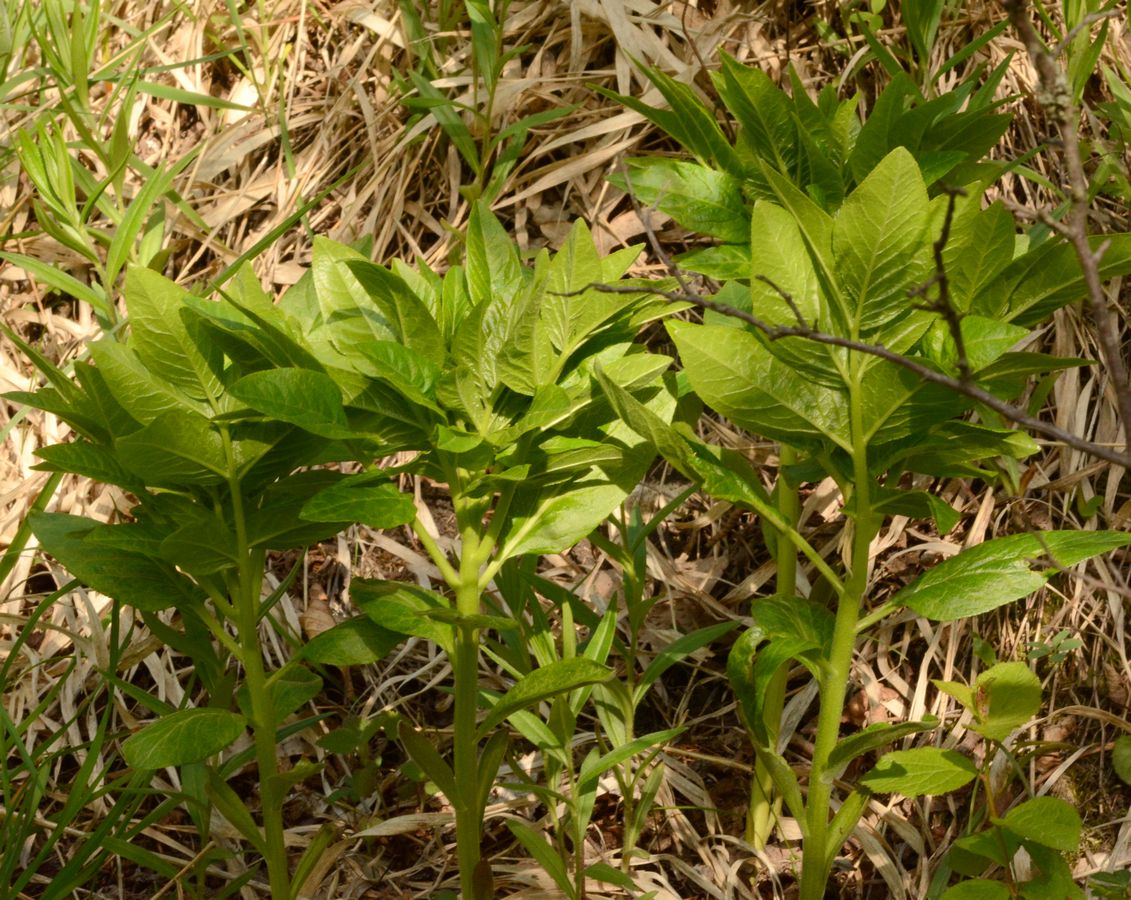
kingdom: Plantae
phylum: Tracheophyta
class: Magnoliopsida
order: Sapindales
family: Rutaceae
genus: Dictamnus
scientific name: Dictamnus albus
